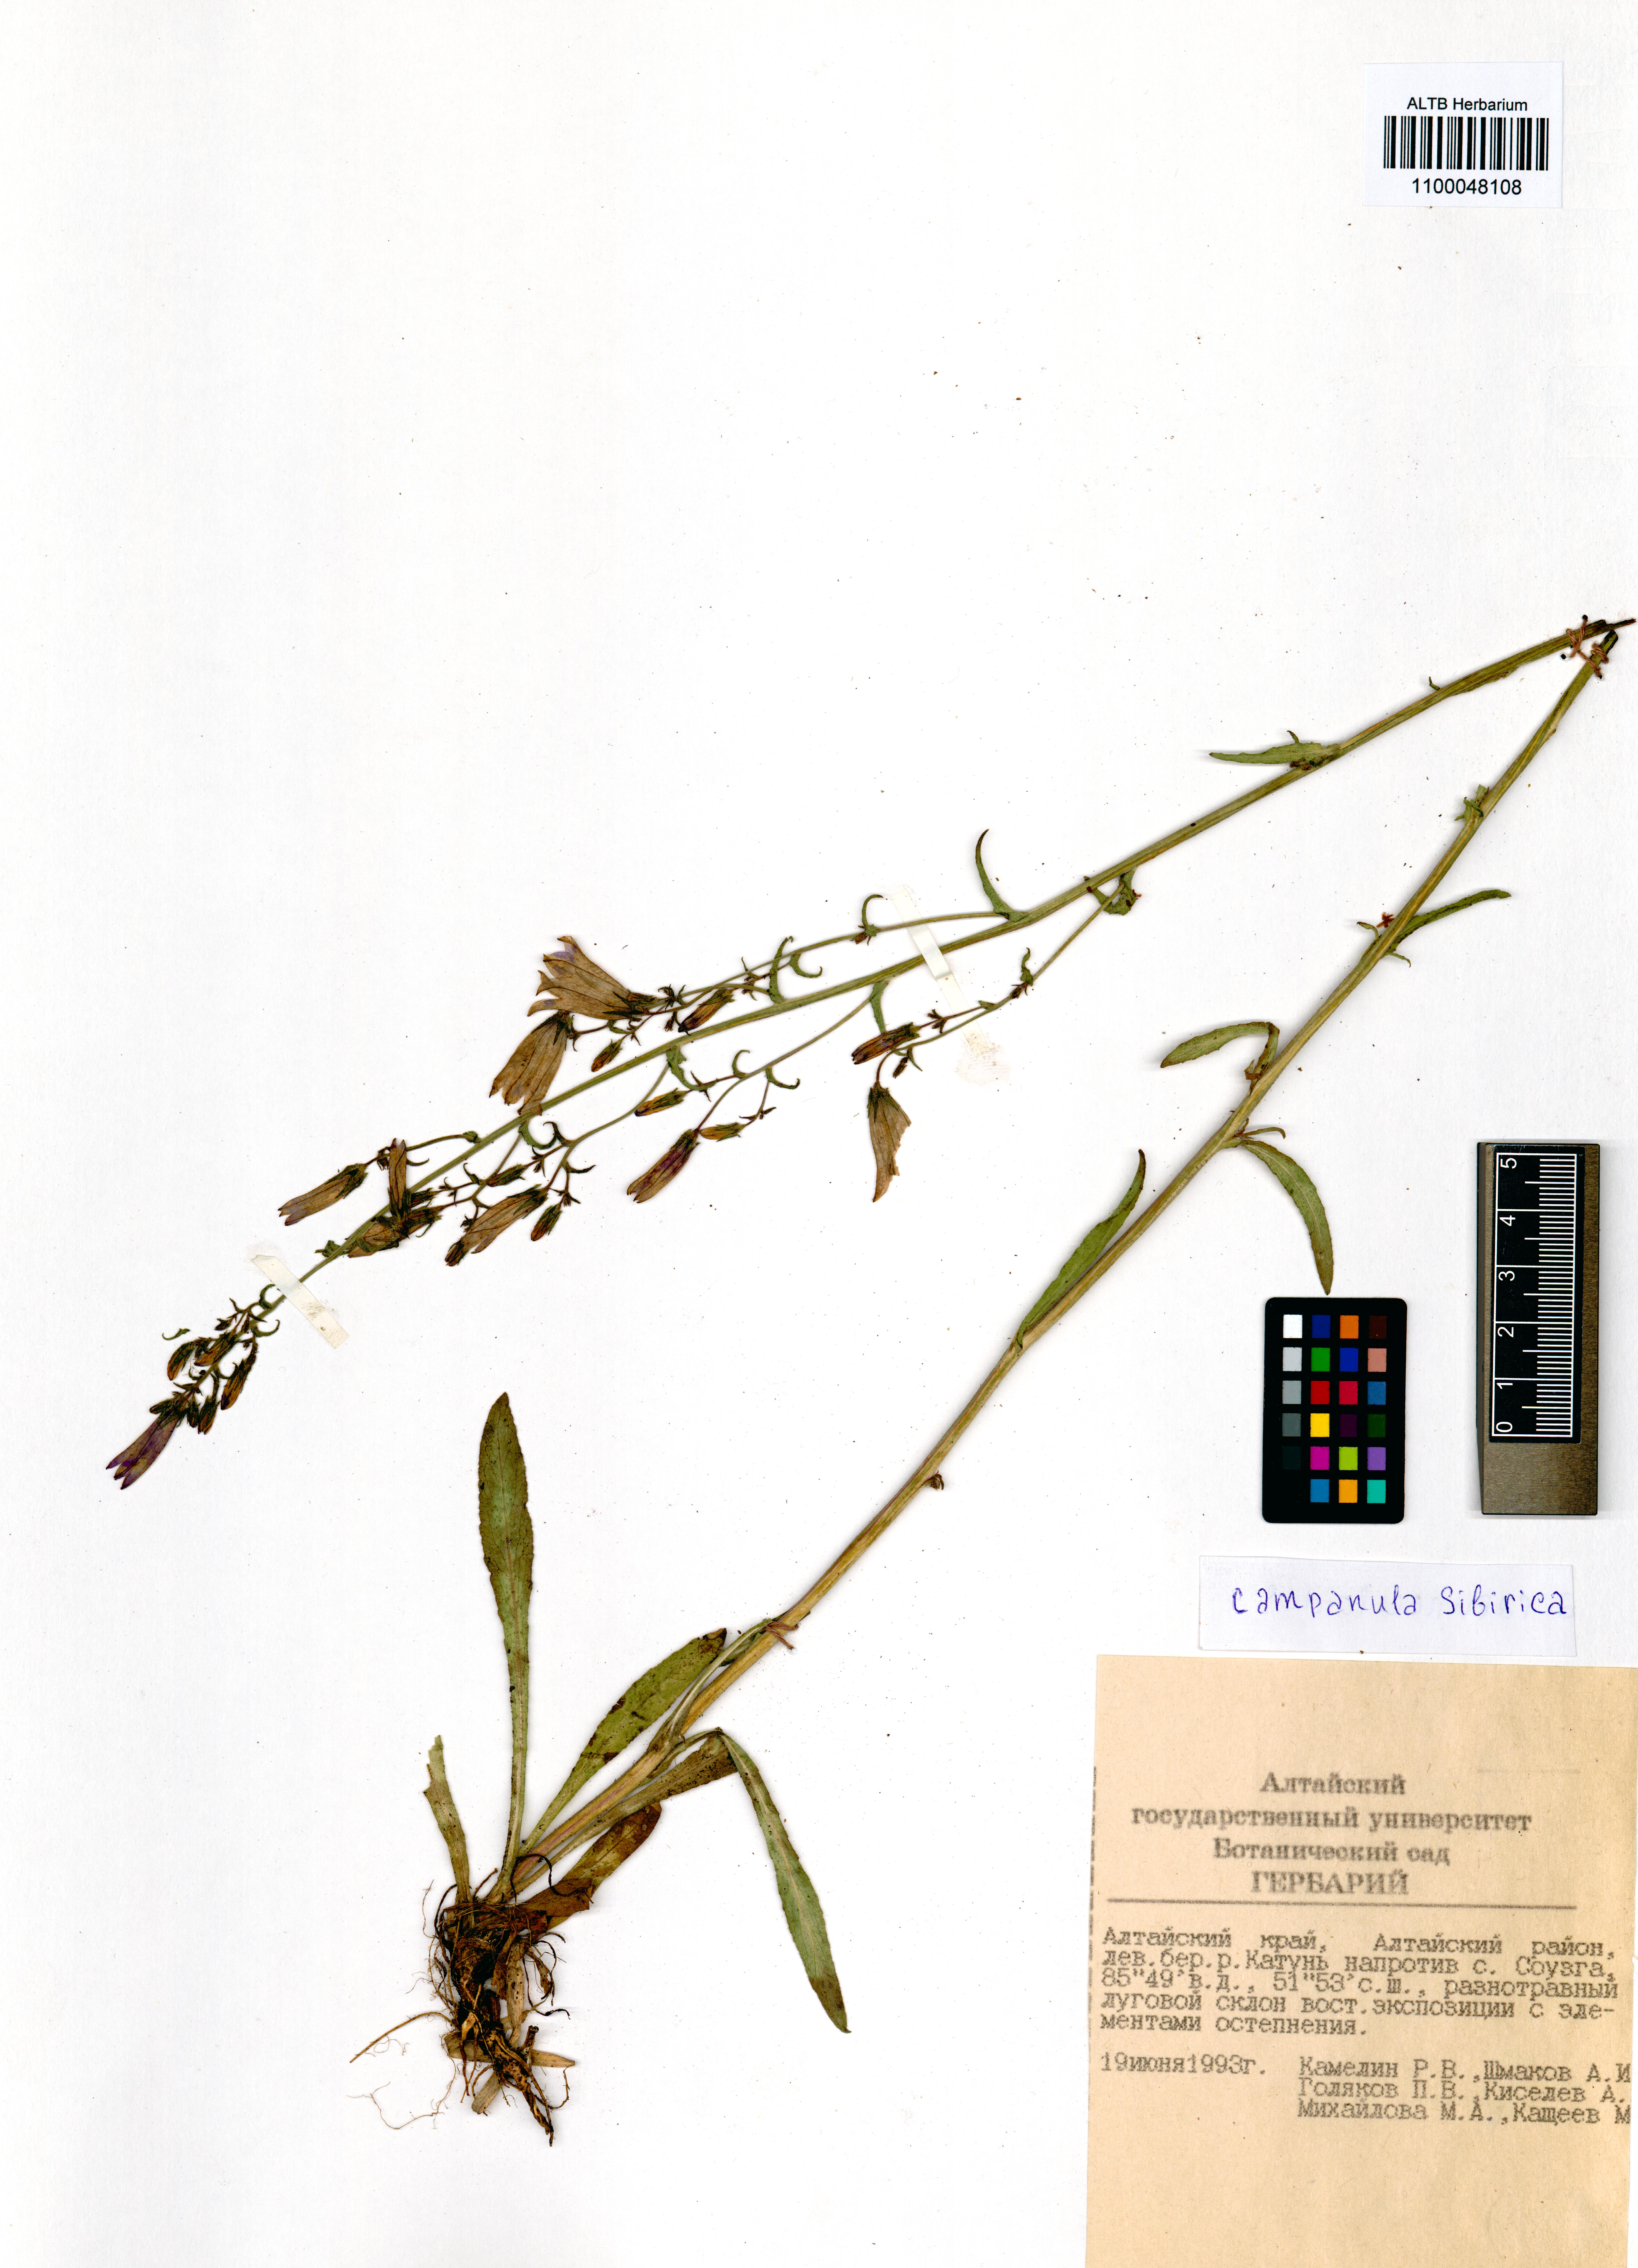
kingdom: Plantae
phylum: Tracheophyta
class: Magnoliopsida
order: Asterales
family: Campanulaceae
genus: Campanula
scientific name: Campanula sibirica
